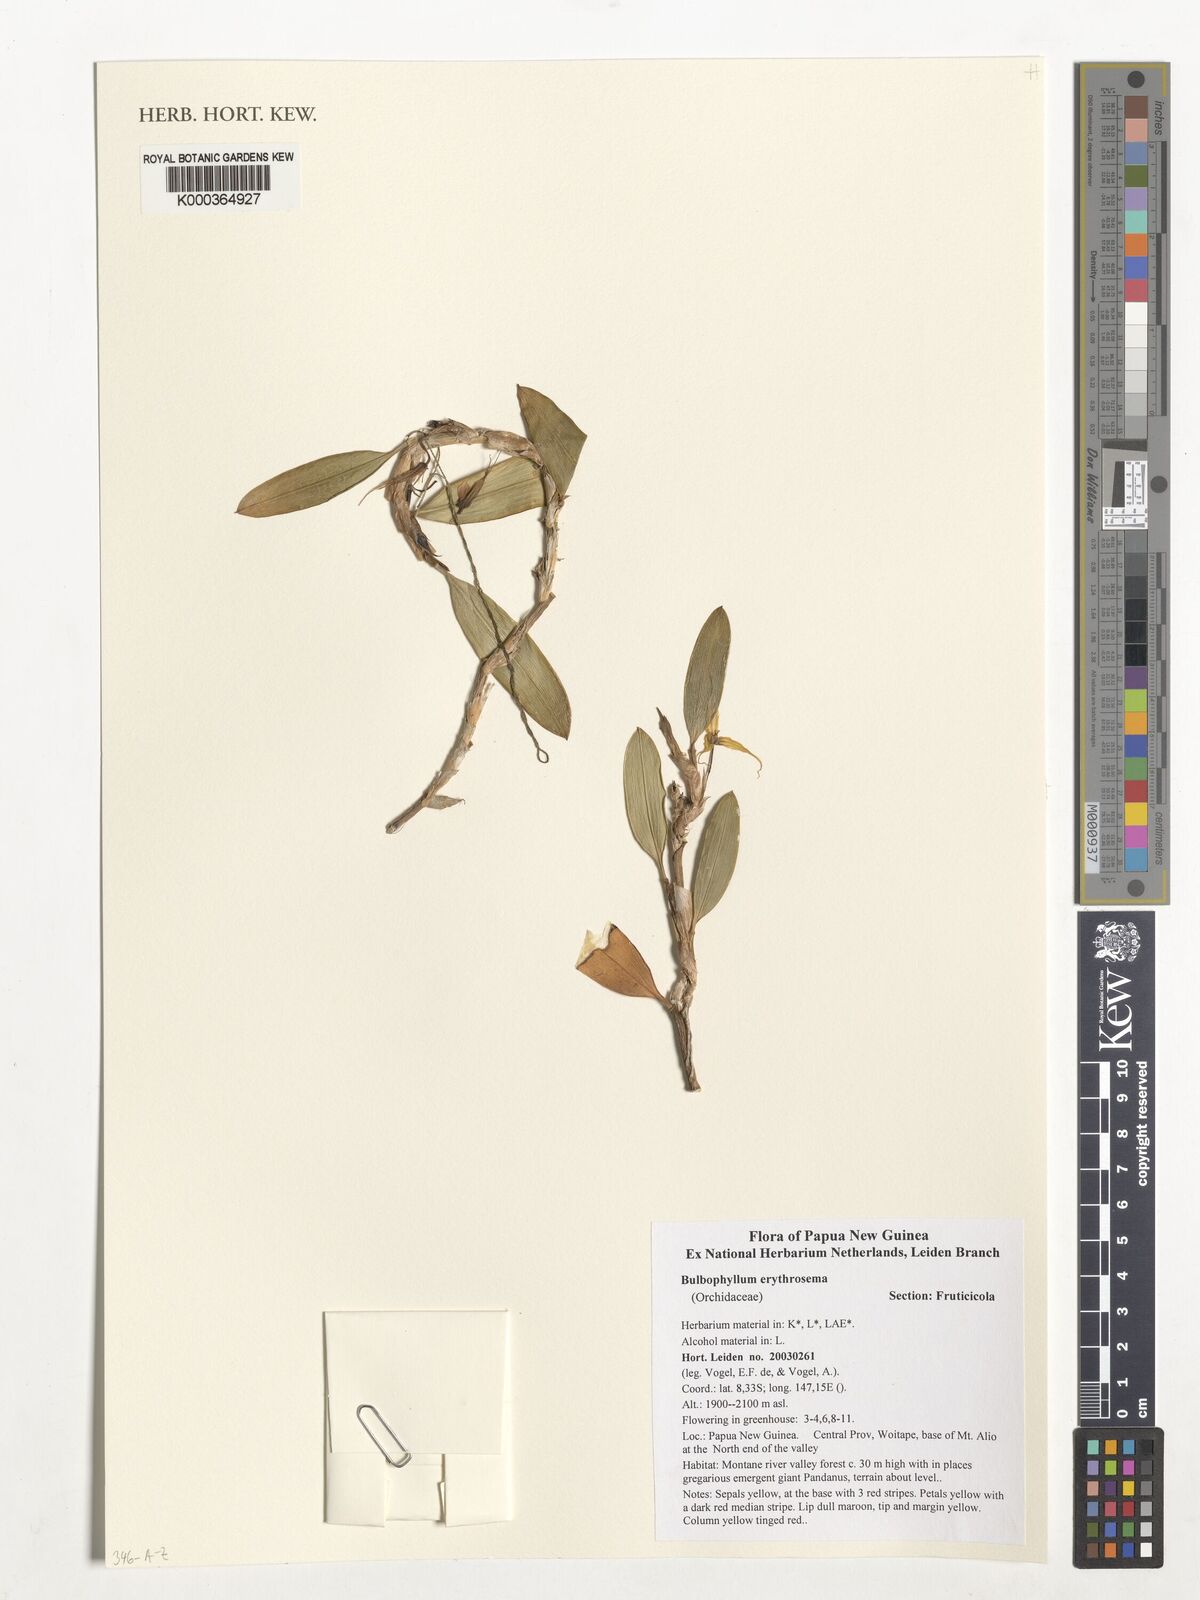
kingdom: Plantae
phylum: Tracheophyta
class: Liliopsida
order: Asparagales
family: Orchidaceae
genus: Bulbophyllum
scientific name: Bulbophyllum erythrosema
